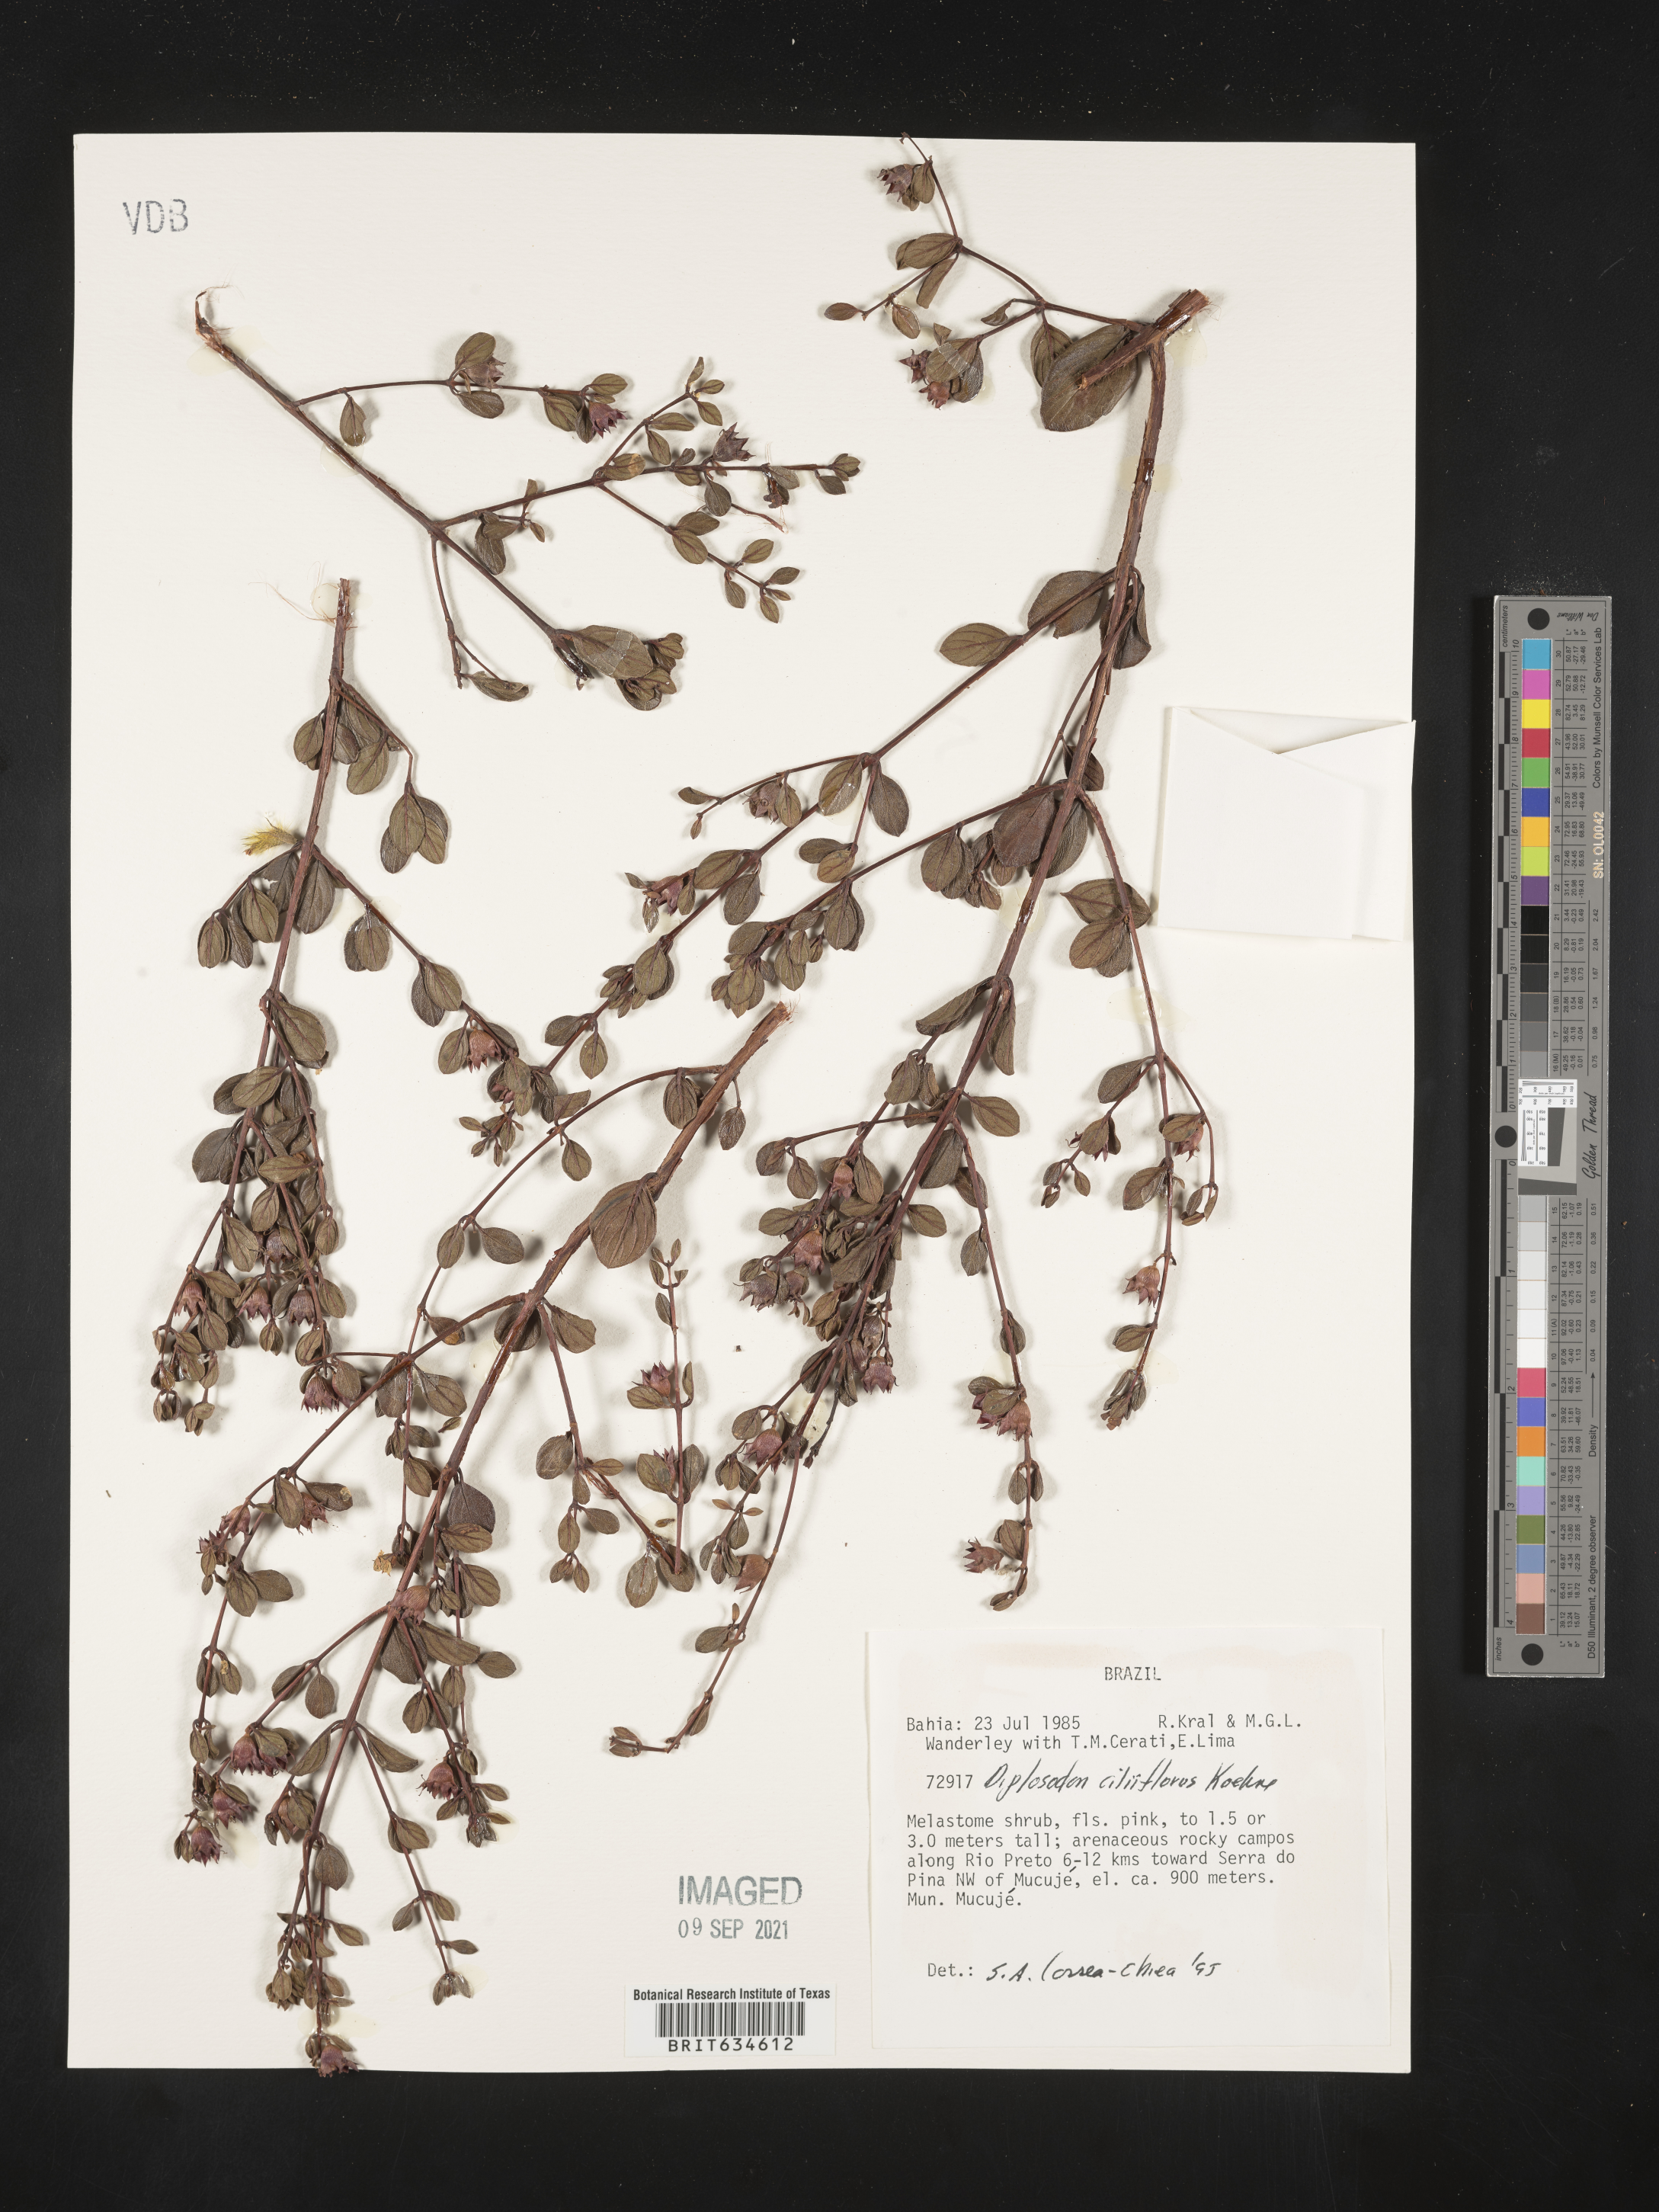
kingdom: Plantae
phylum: Tracheophyta
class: Magnoliopsida
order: Myrtales
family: Lythraceae
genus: Diplusodon
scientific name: Diplusodon
